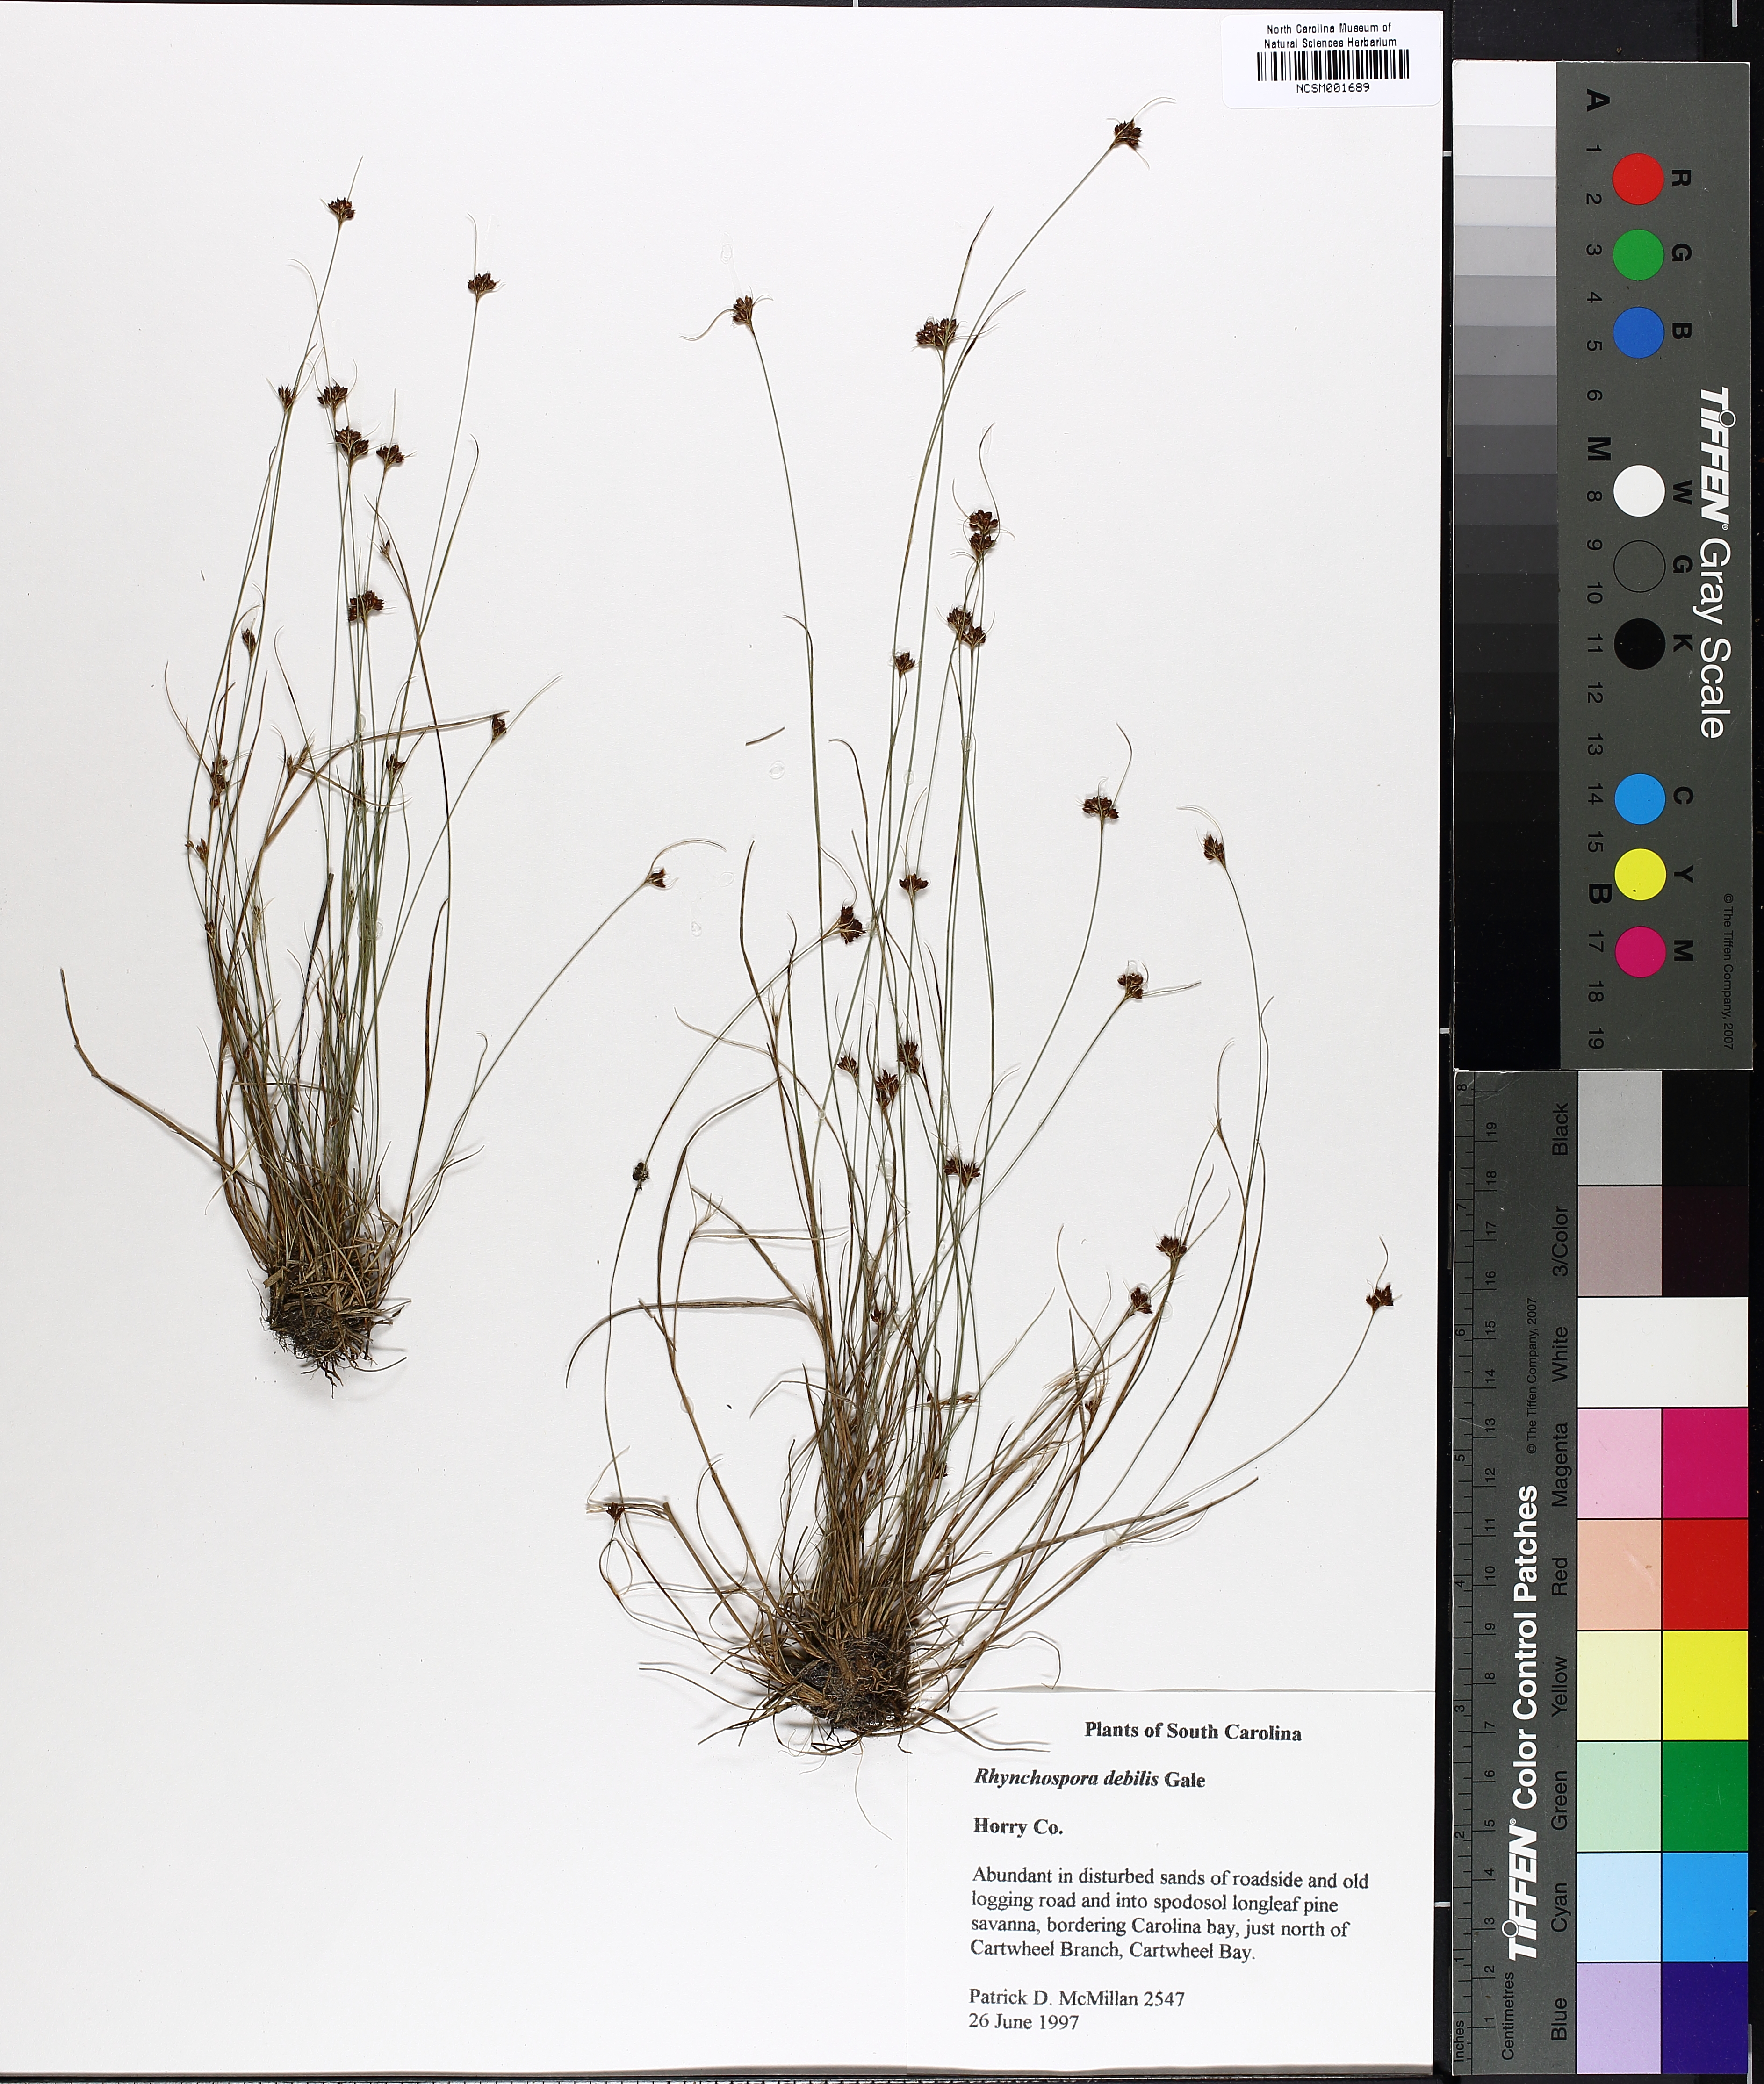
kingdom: Plantae
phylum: Tracheophyta
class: Liliopsida
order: Poales
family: Cyperaceae
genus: Rhynchospora
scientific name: Rhynchospora debilis
